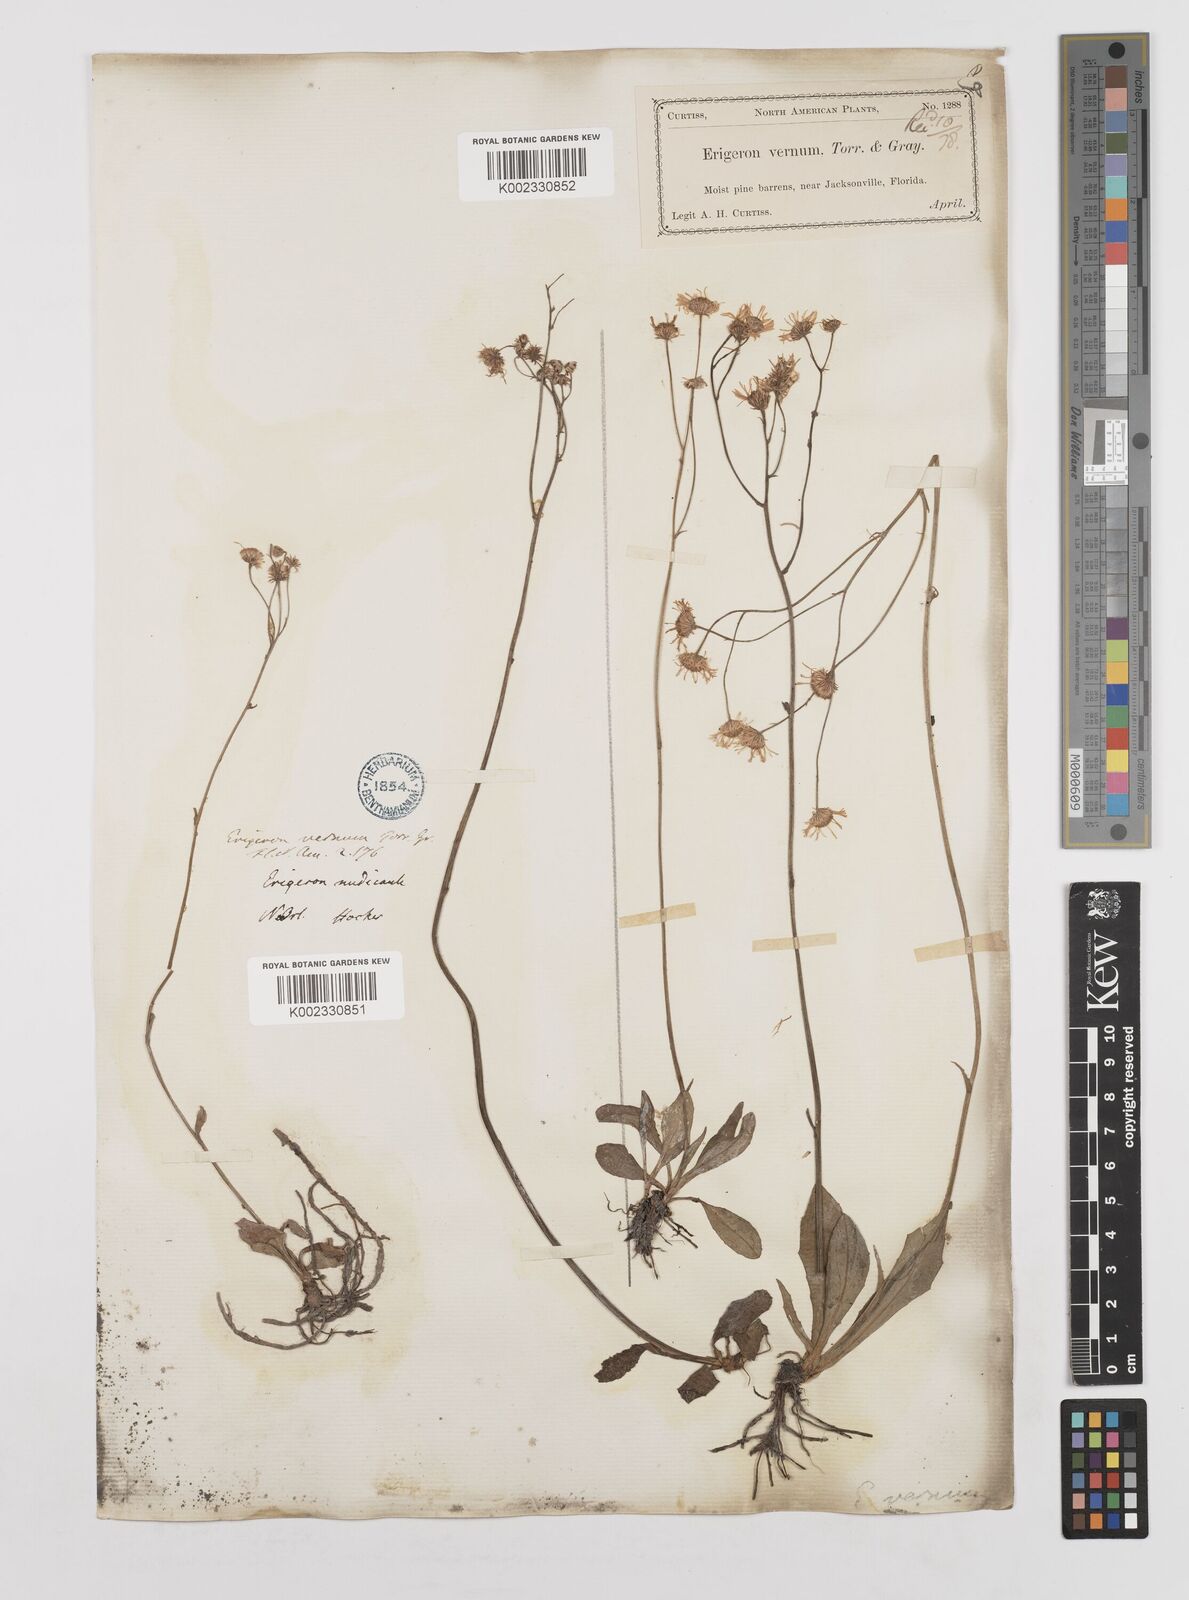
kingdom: Plantae
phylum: Tracheophyta
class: Magnoliopsida
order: Asterales
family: Asteraceae
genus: Erigeron
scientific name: Erigeron vernus
